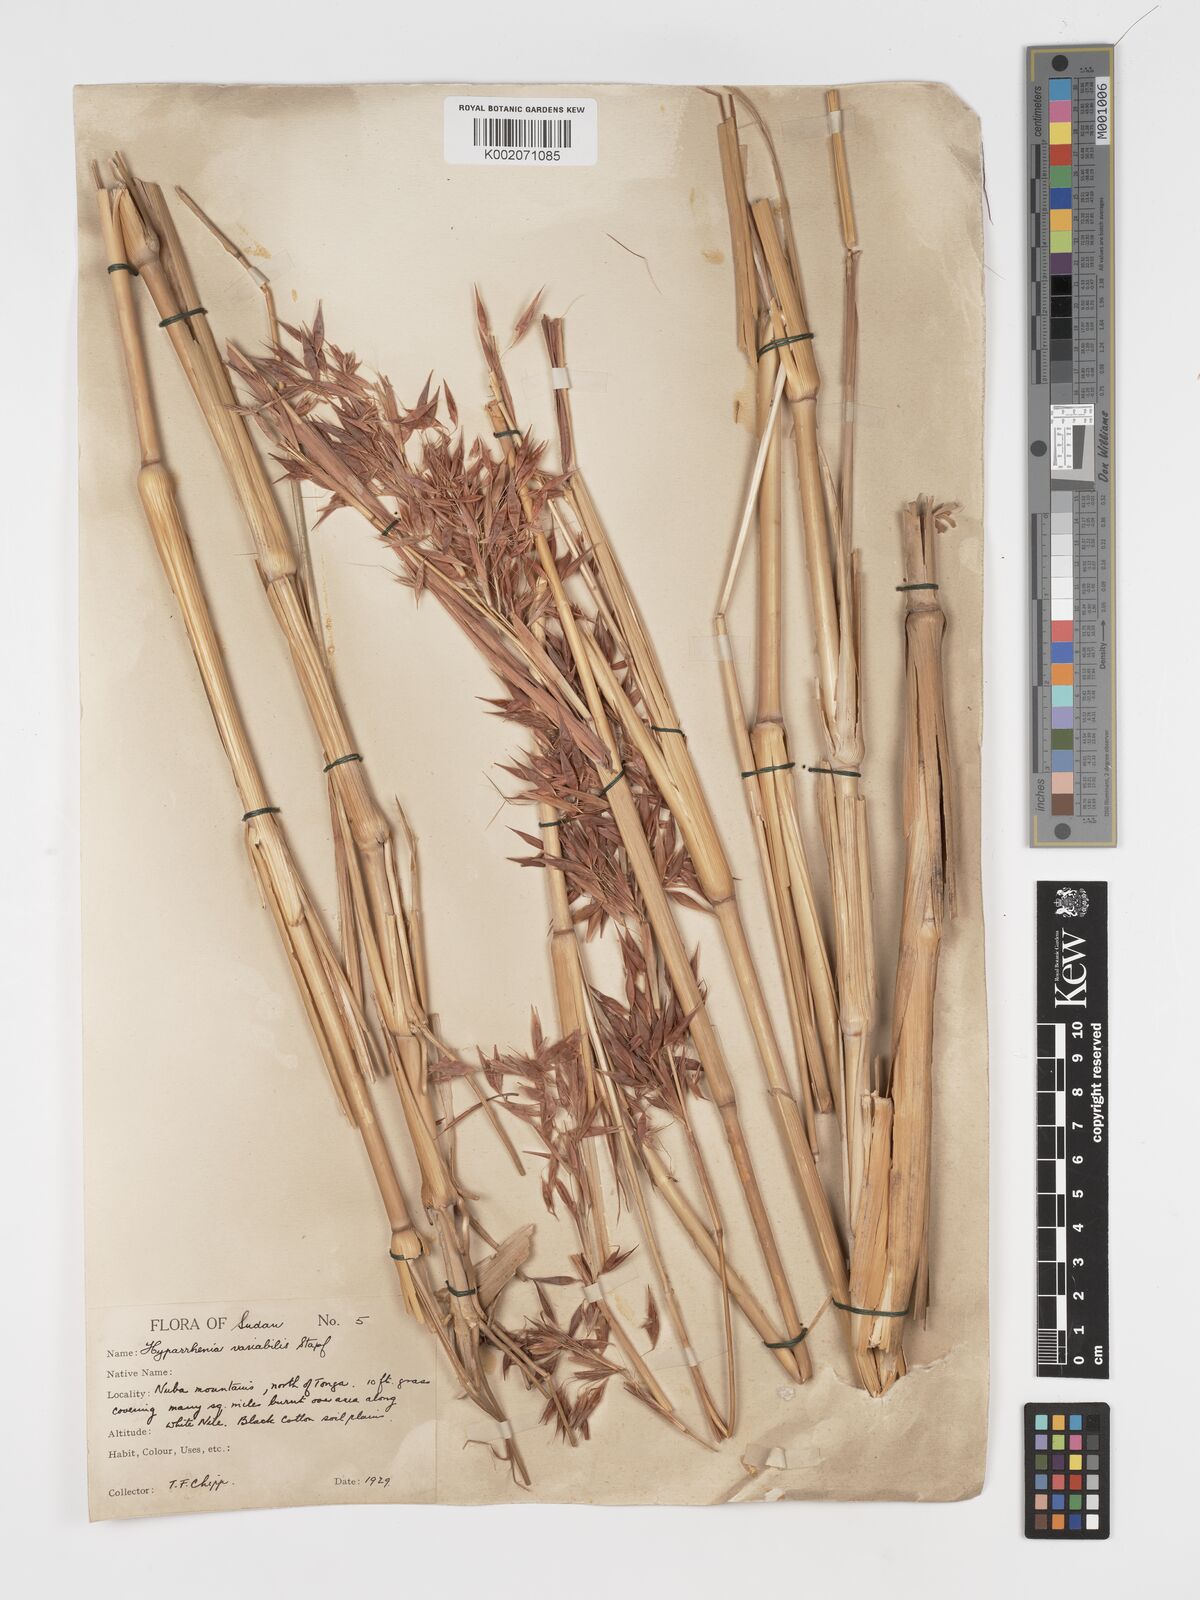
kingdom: Plantae
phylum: Tracheophyta
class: Liliopsida
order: Poales
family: Poaceae
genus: Hyparrhenia
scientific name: Hyparrhenia variabilis
